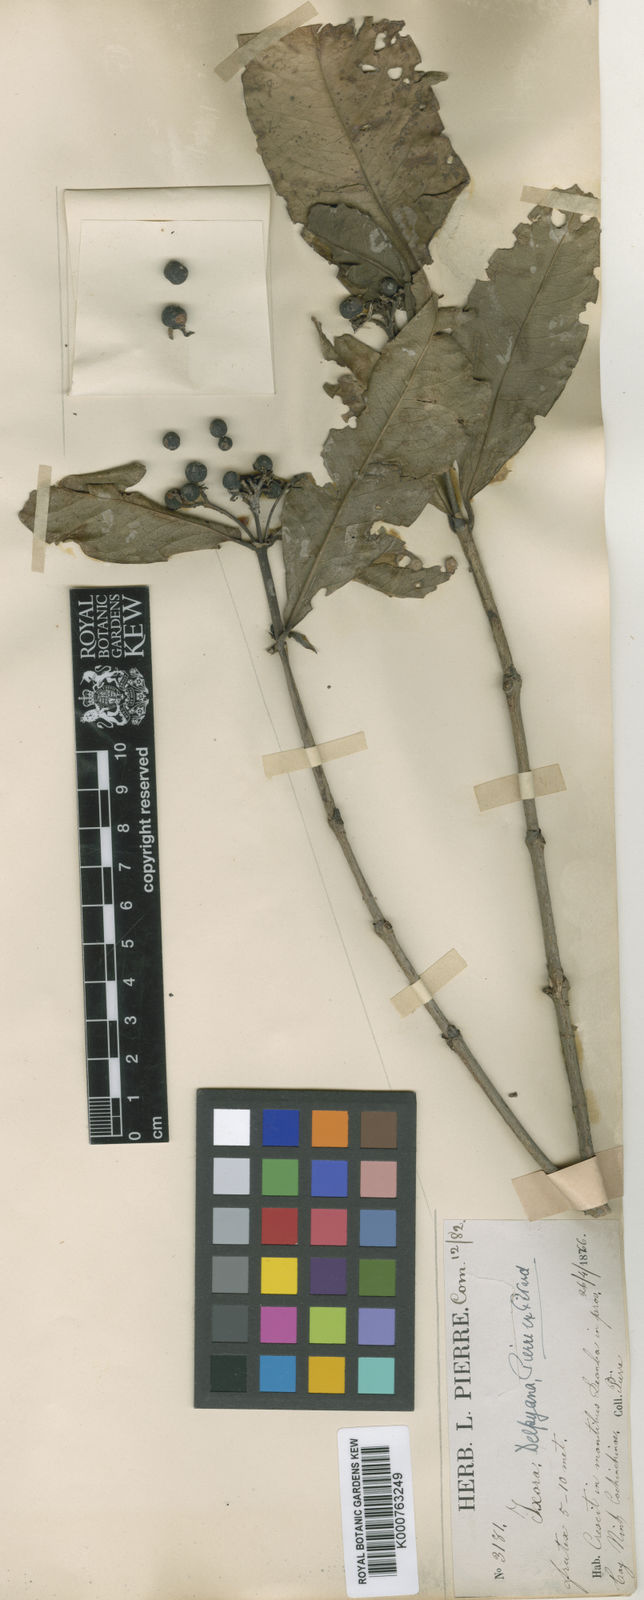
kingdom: Plantae
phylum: Tracheophyta
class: Magnoliopsida
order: Gentianales
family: Rubiaceae
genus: Ixora
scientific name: Ixora delpyana
